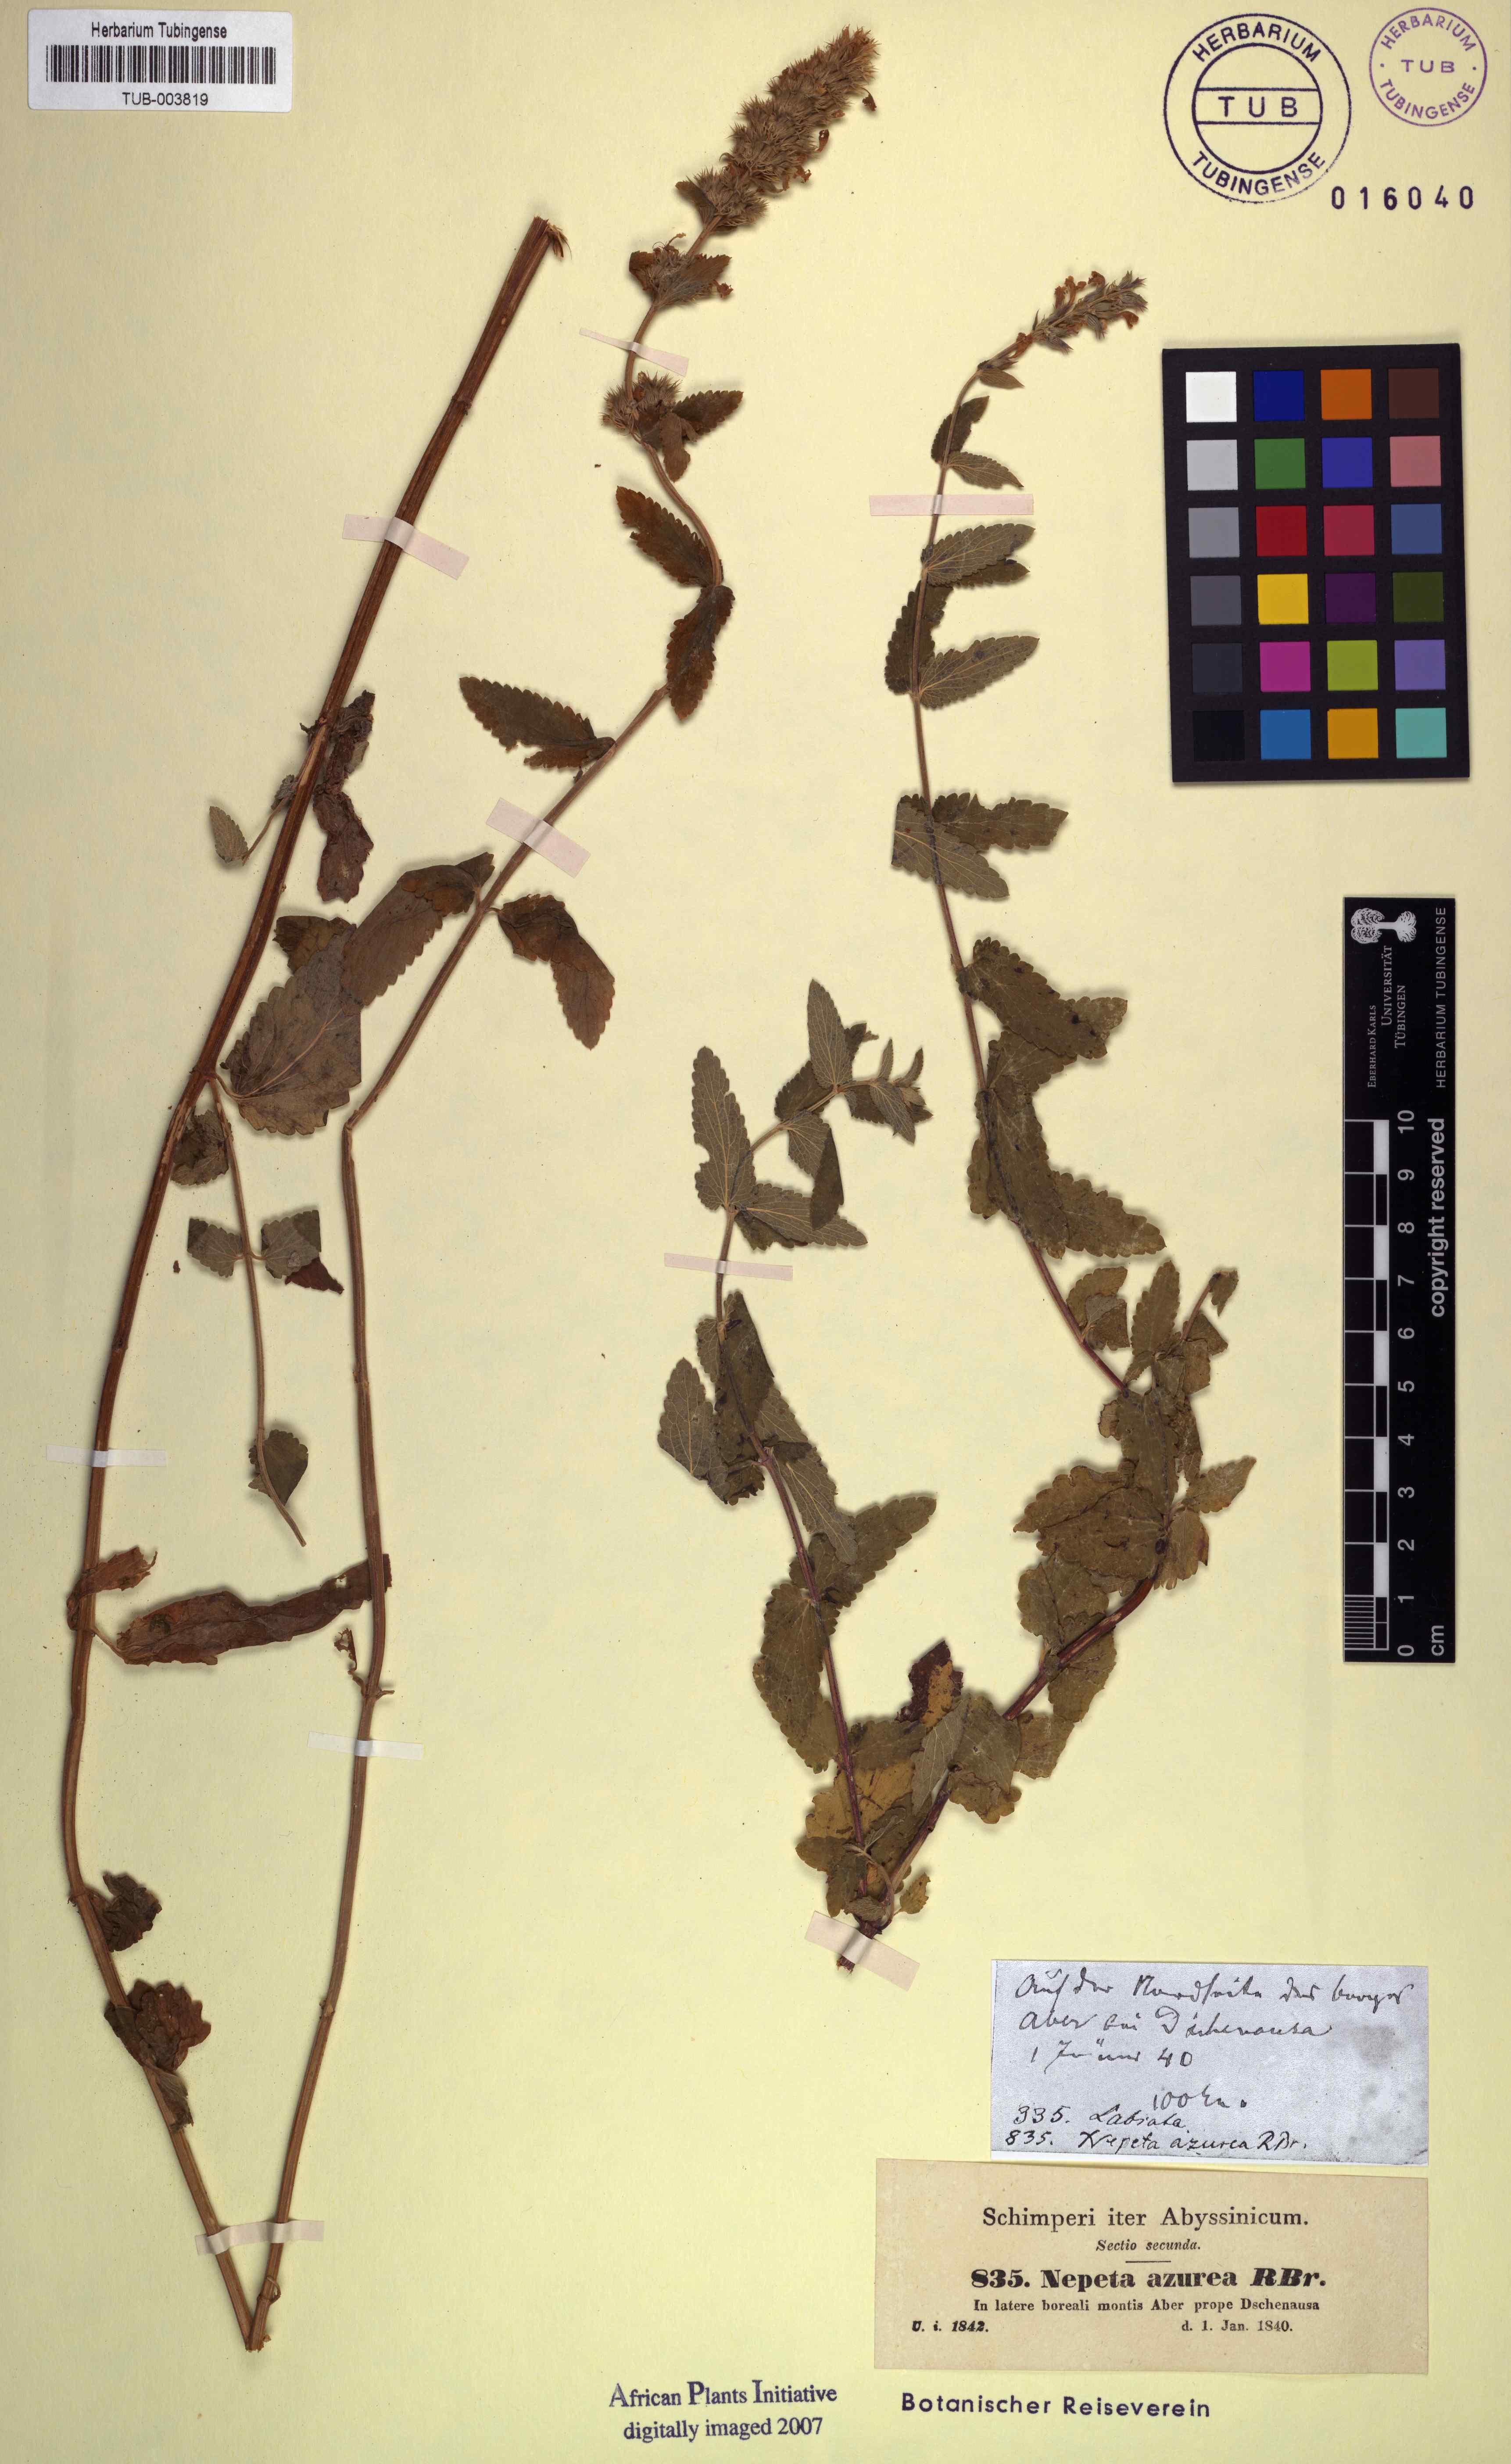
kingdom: Plantae
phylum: Tracheophyta
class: Magnoliopsida
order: Lamiales
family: Lamiaceae
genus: Nepeta
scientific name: Nepeta azurea
